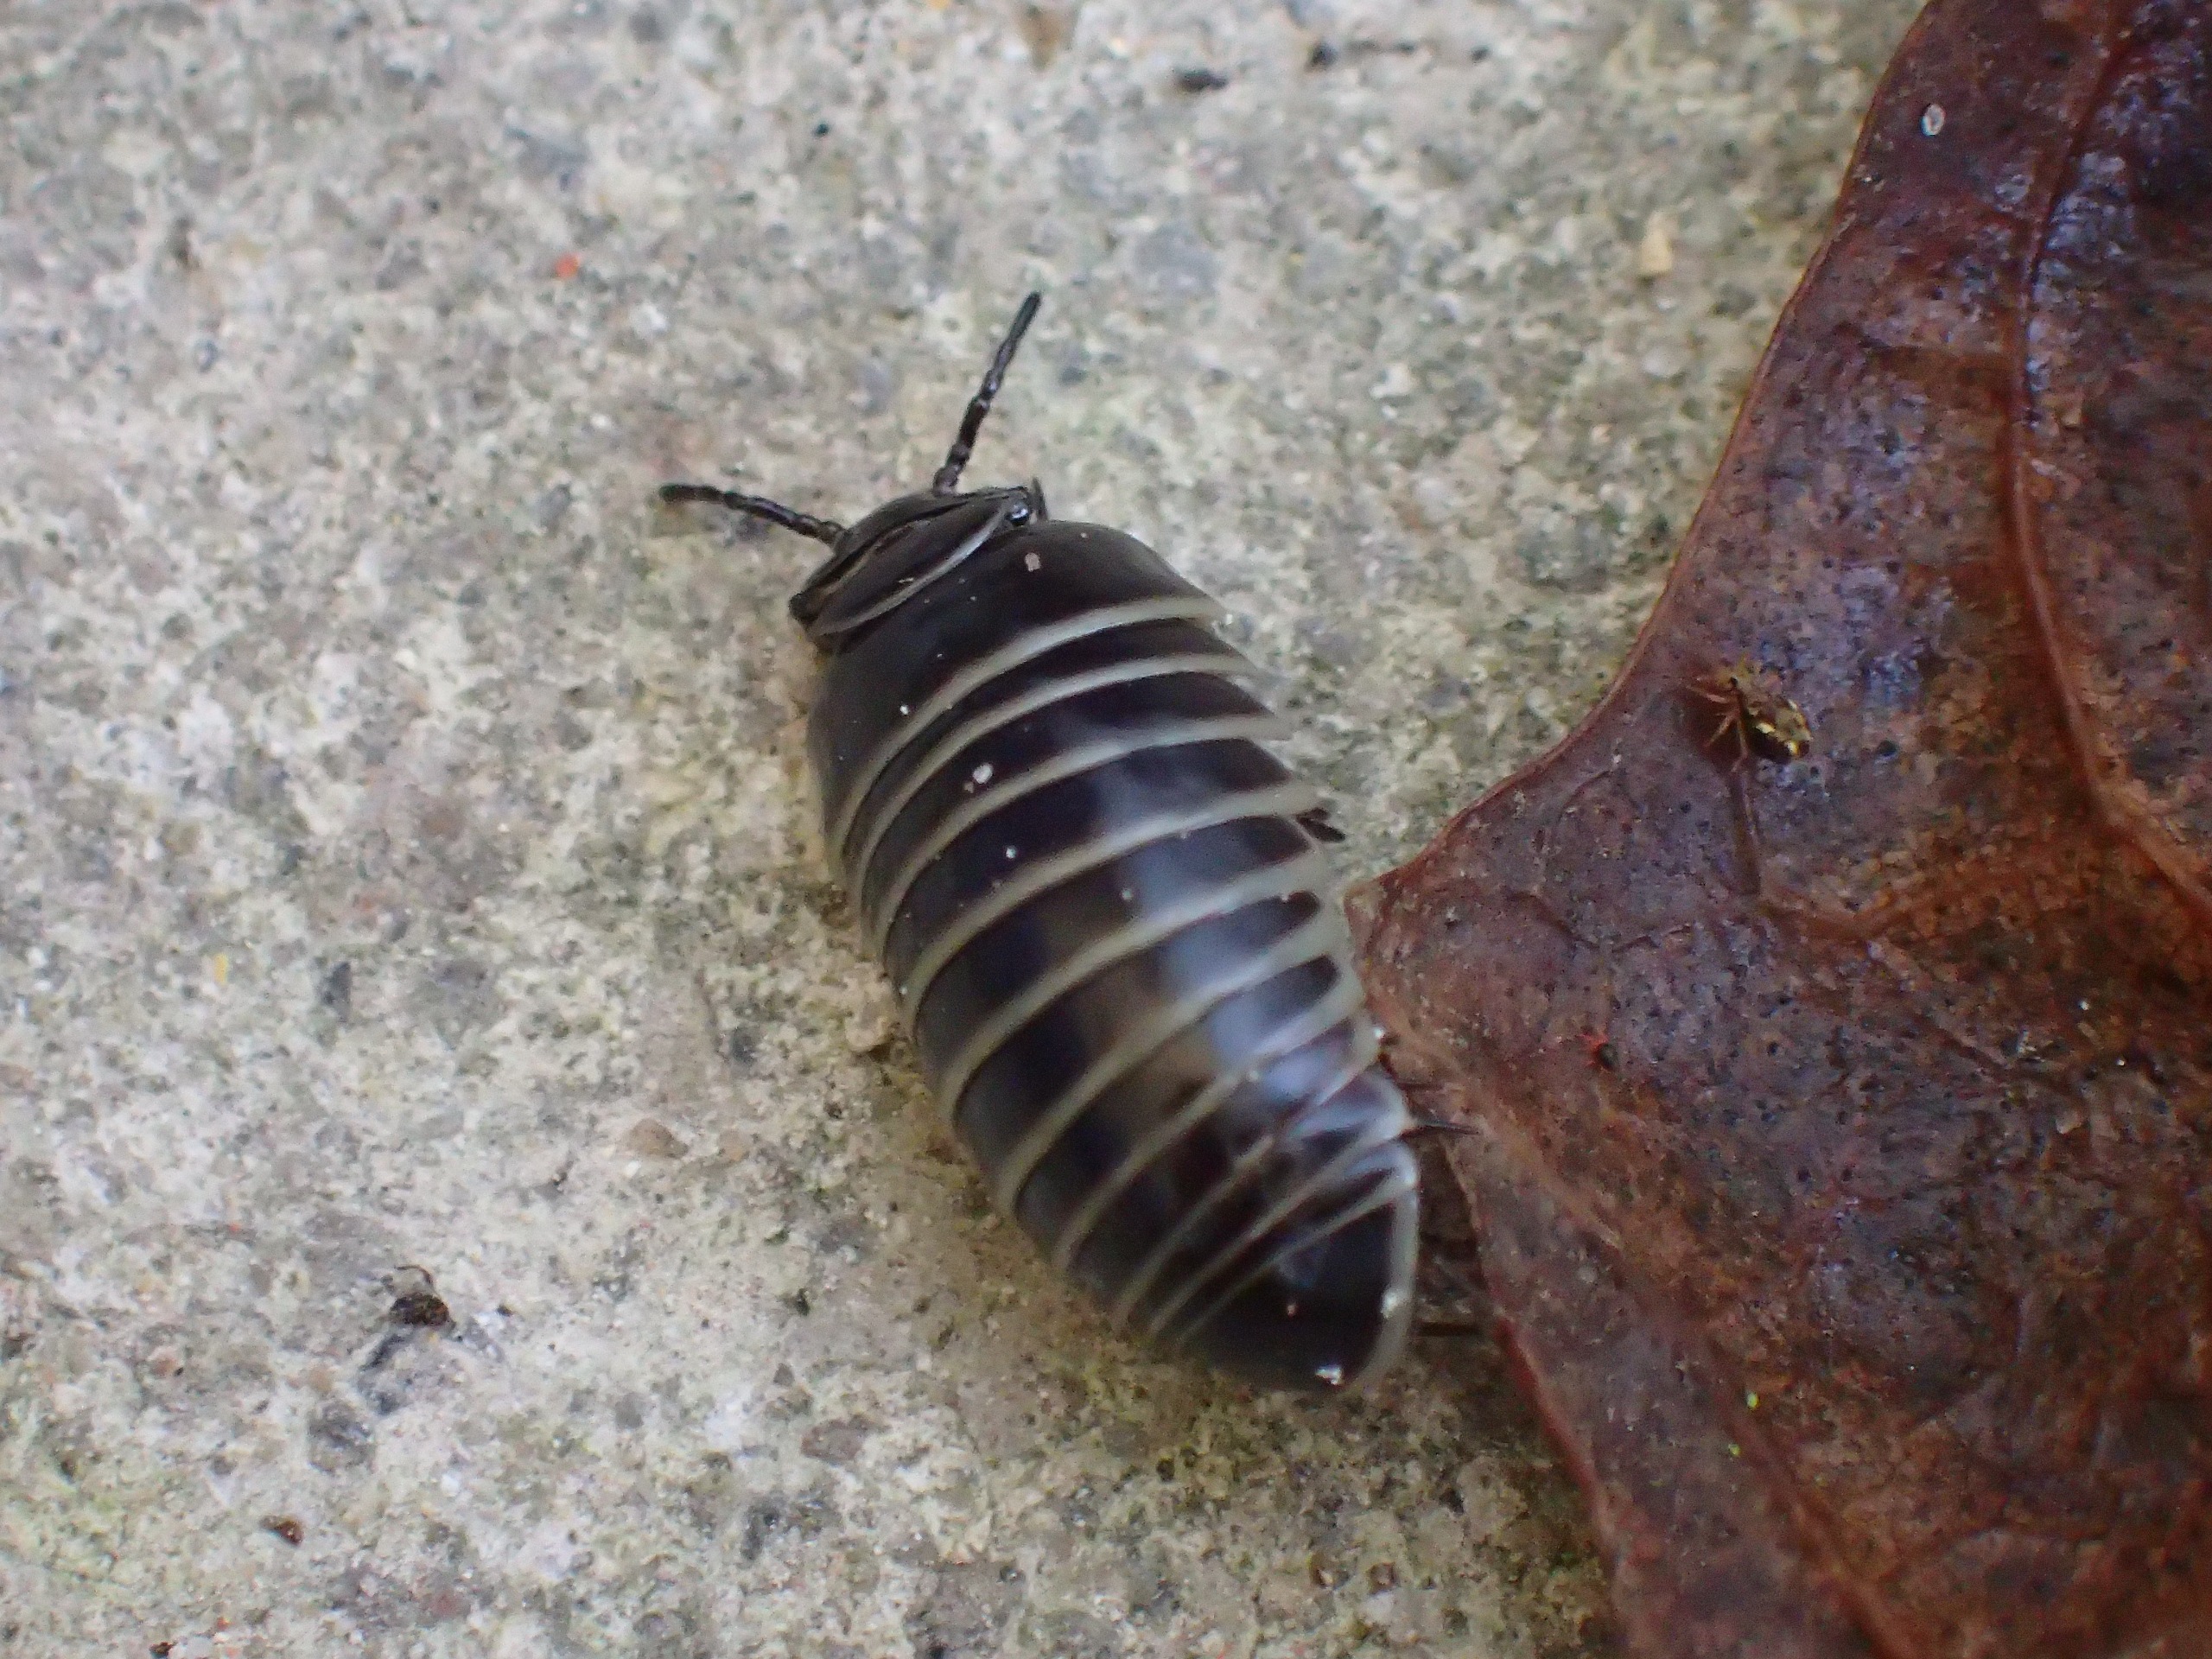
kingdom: Animalia
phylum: Arthropoda
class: Diplopoda
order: Glomerida
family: Glomeridae
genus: Glomeris
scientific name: Glomeris marginata
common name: Kugletusindben
